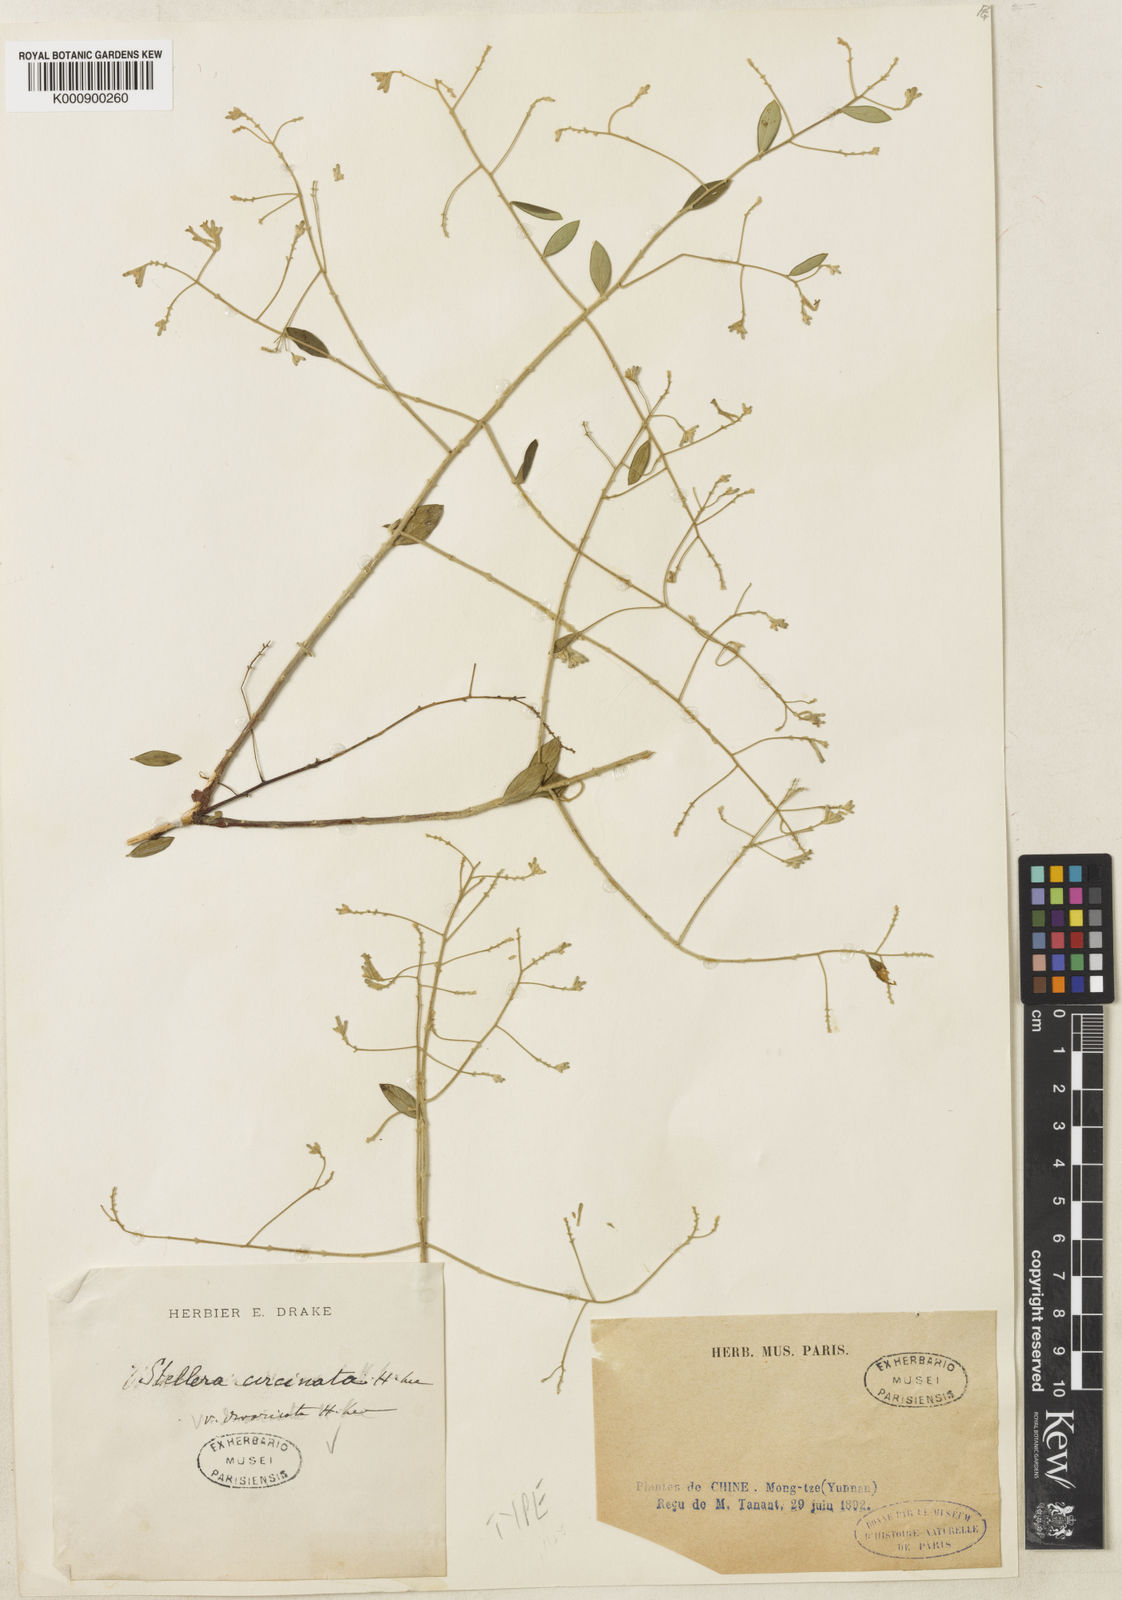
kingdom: Plantae
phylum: Tracheophyta
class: Magnoliopsida
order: Malvales
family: Thymelaeaceae
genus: Wikstroemia
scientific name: Wikstroemia dolichantha
